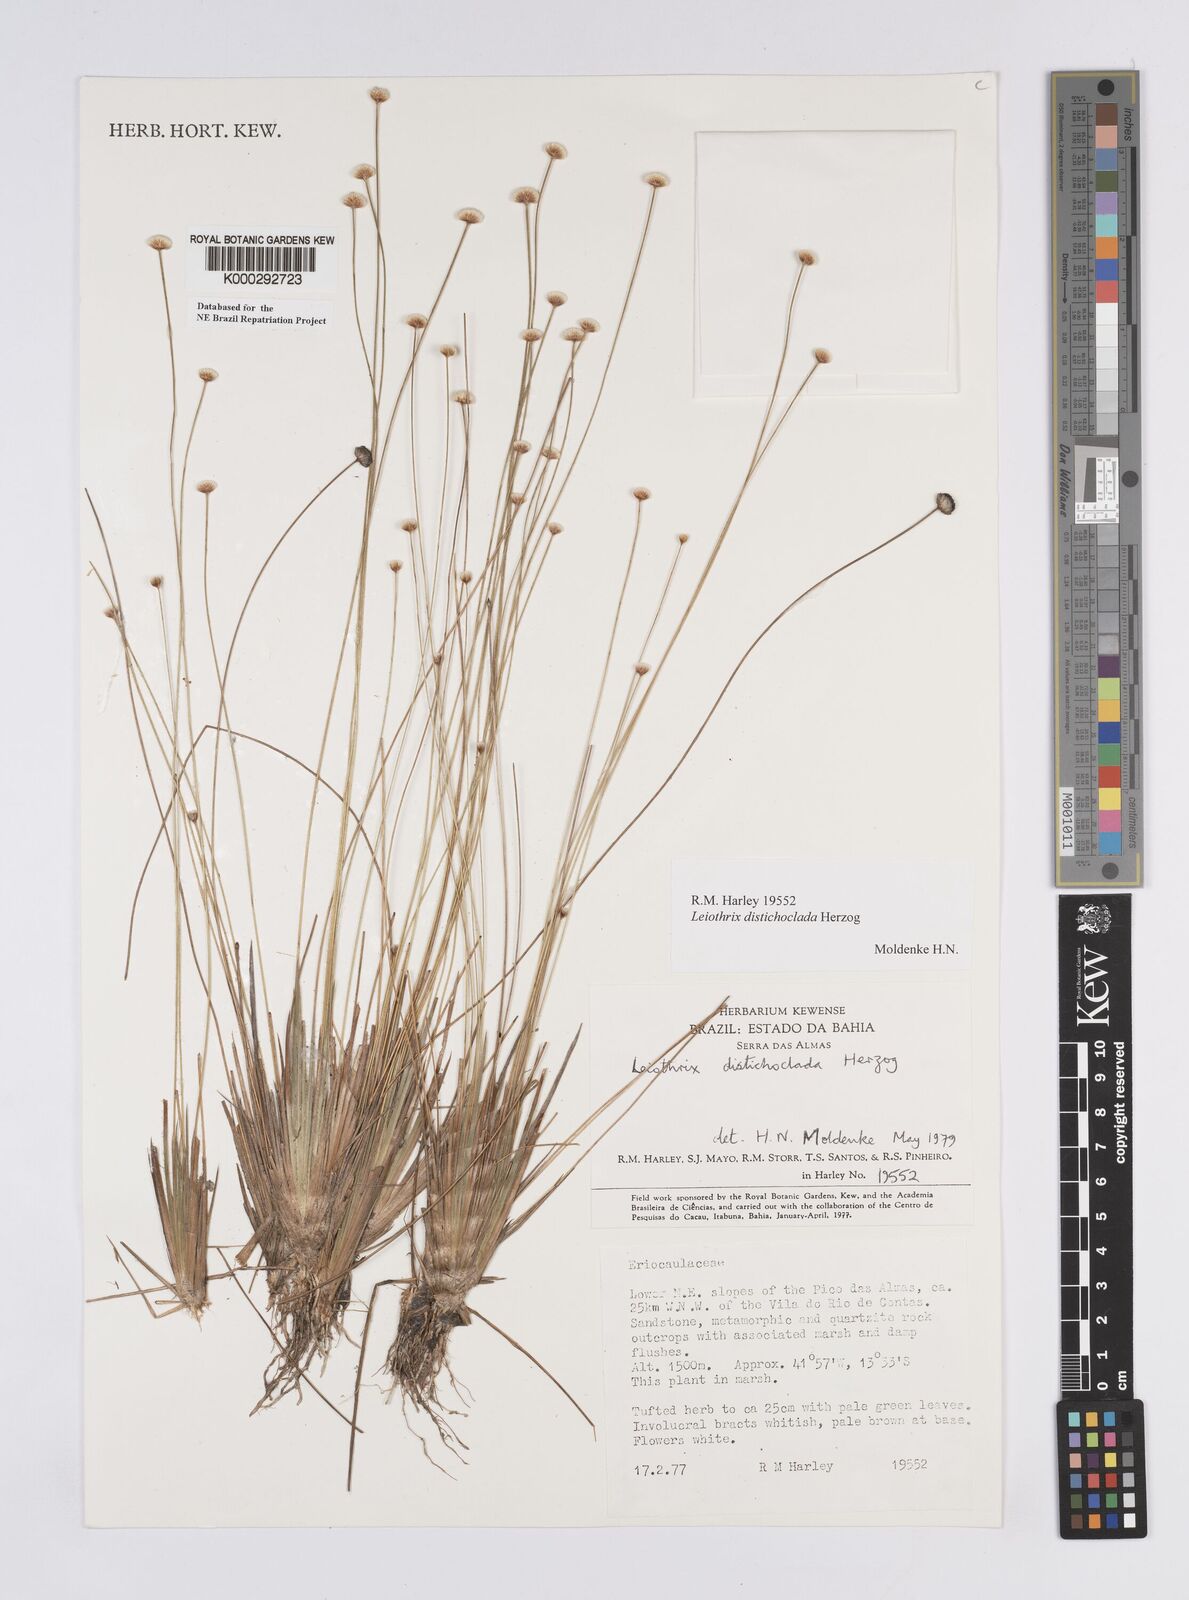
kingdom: Plantae
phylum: Tracheophyta
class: Liliopsida
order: Poales
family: Eriocaulaceae
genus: Leiothrix
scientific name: Leiothrix distichoclada
